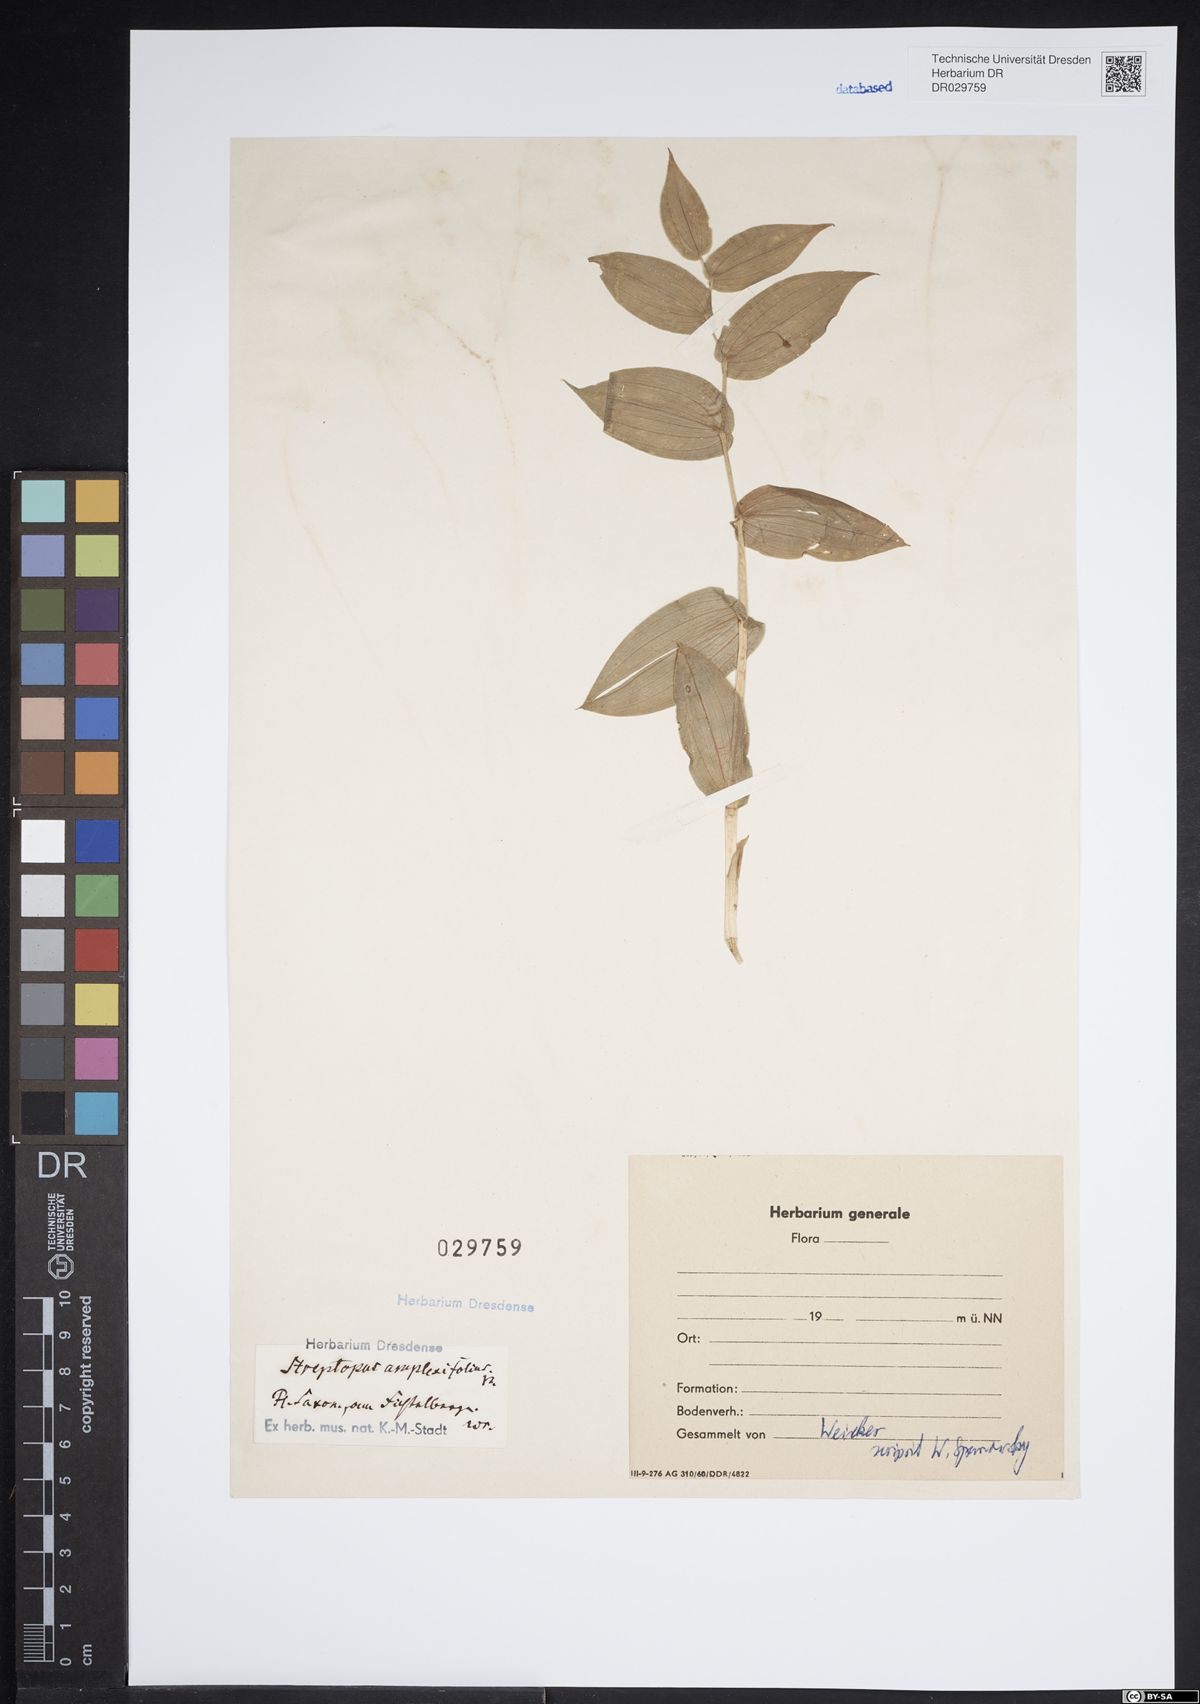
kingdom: Plantae
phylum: Tracheophyta
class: Liliopsida
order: Liliales
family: Liliaceae
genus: Streptopus
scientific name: Streptopus amplexifolius
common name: Clasp twisted stalk
